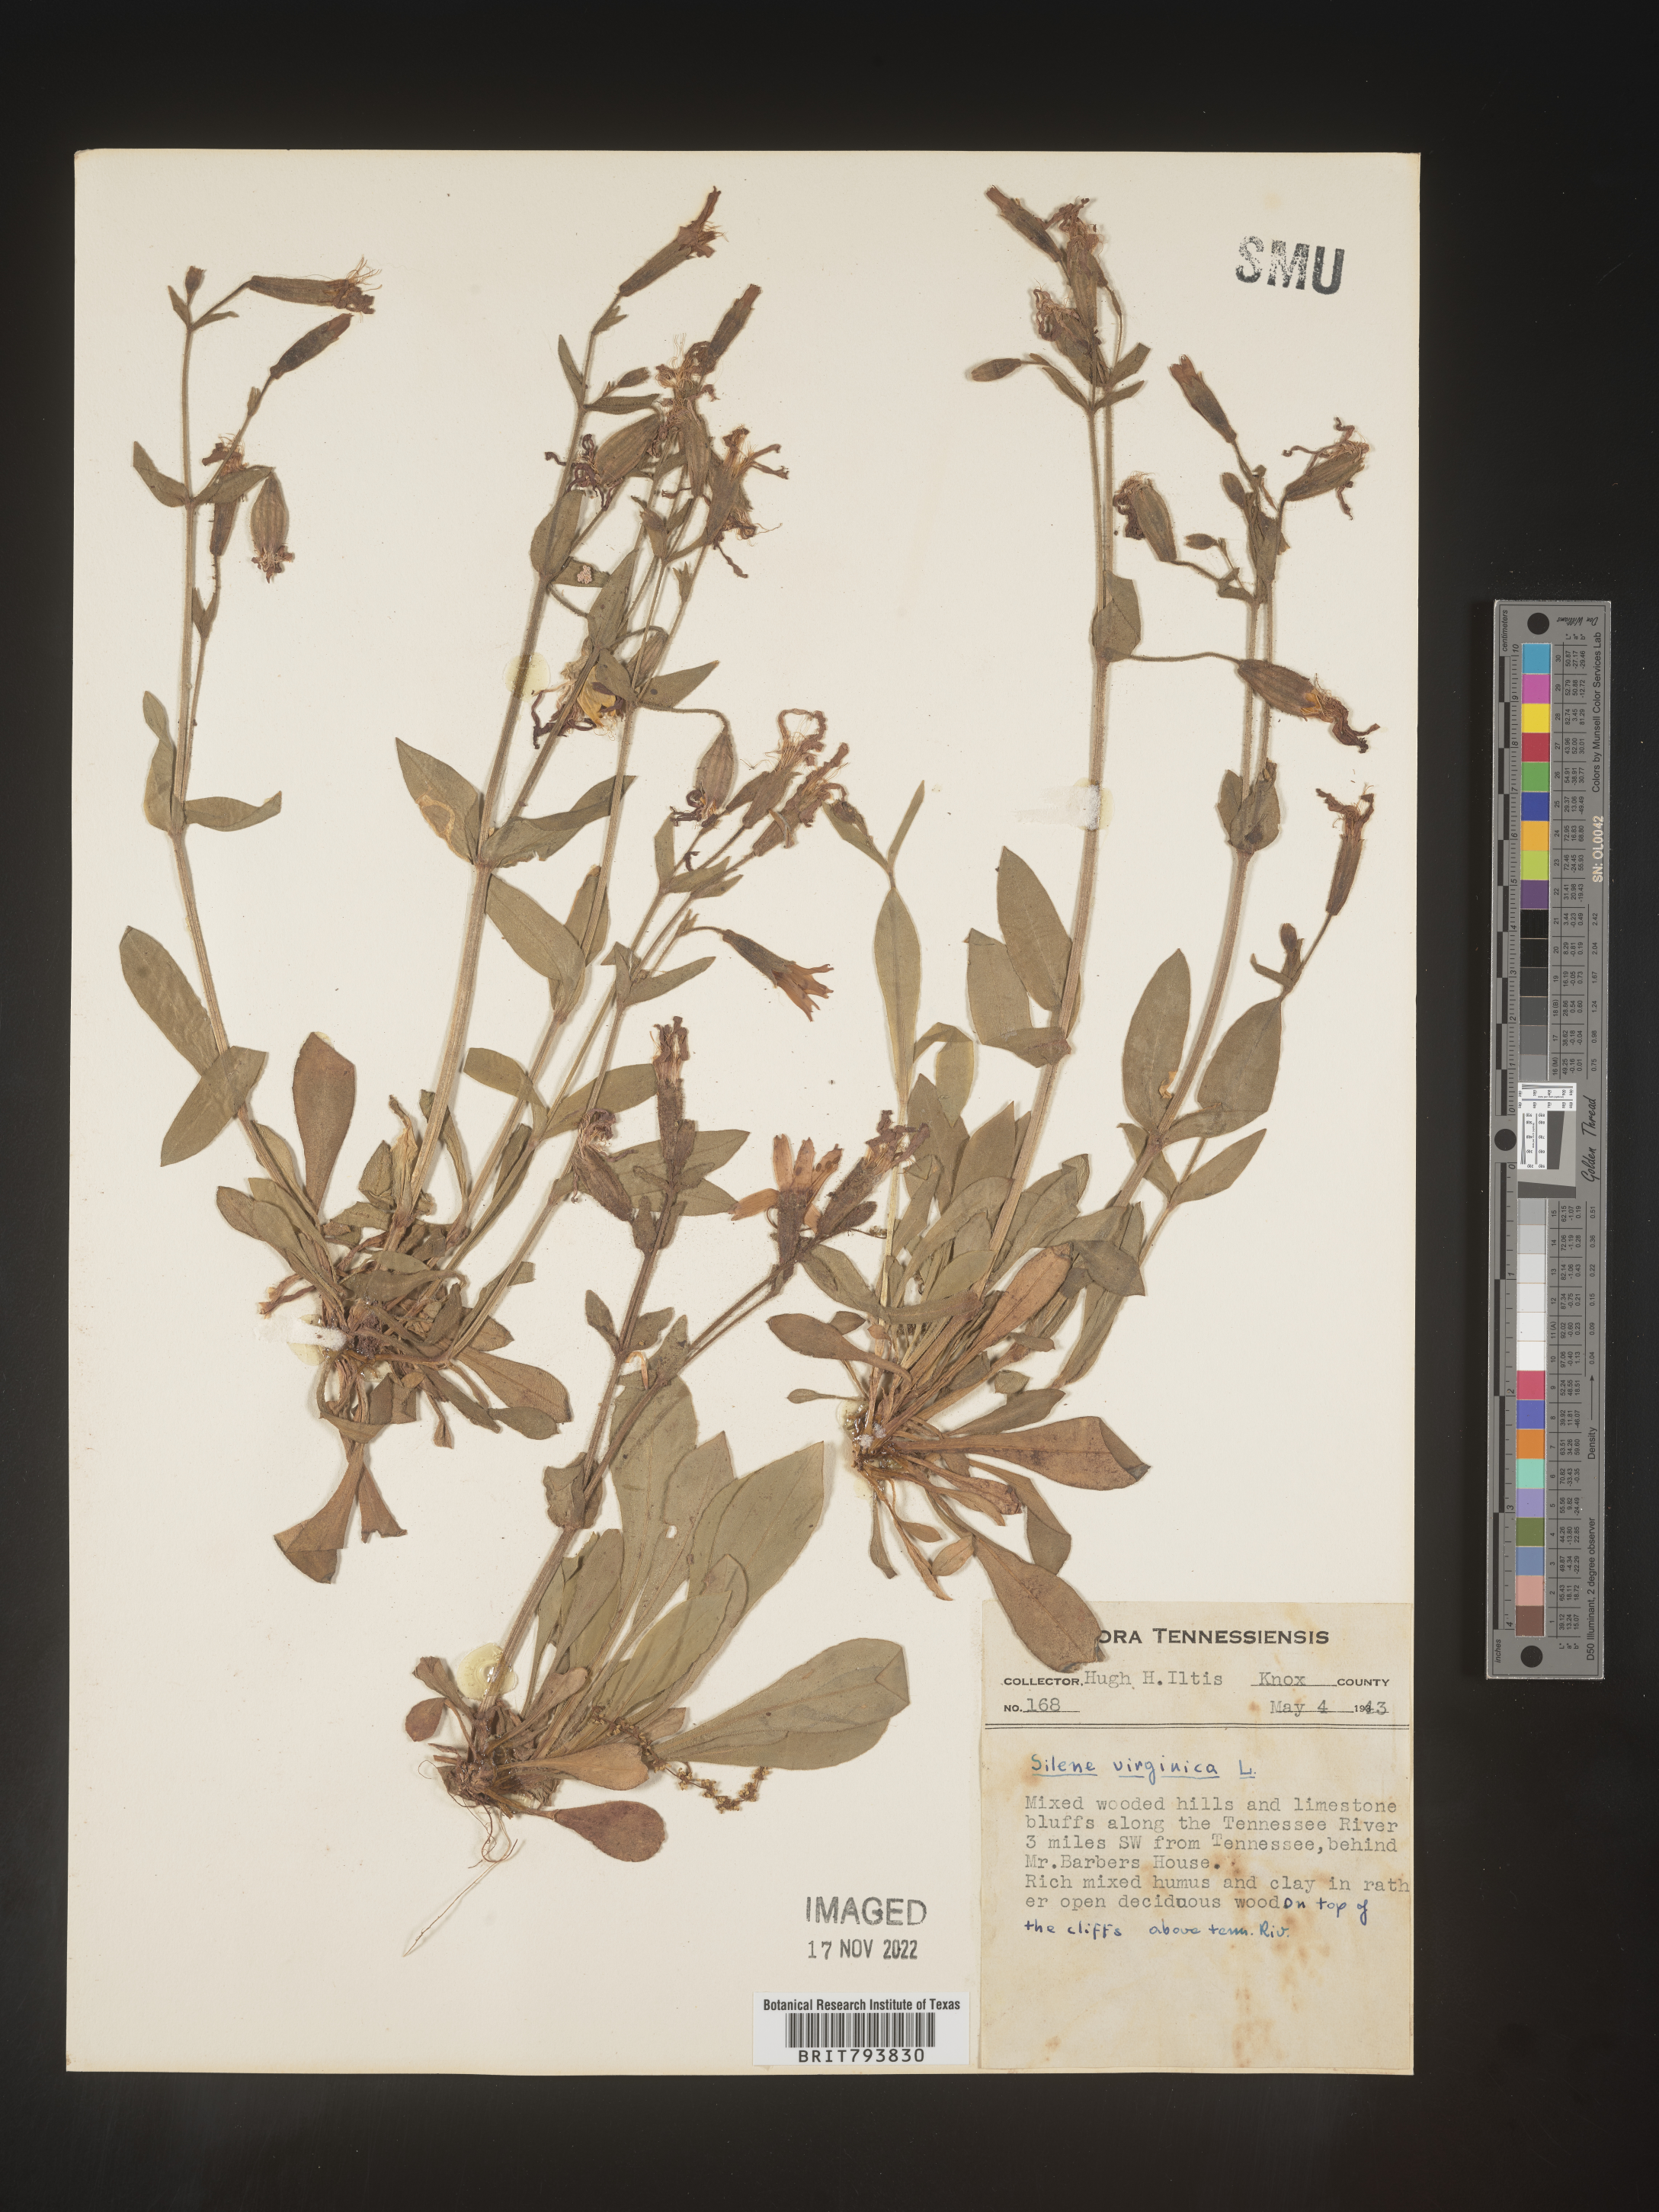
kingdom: Plantae
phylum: Tracheophyta
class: Magnoliopsida
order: Caryophyllales
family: Caryophyllaceae
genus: Silene
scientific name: Silene virginica
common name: Fire-pink
